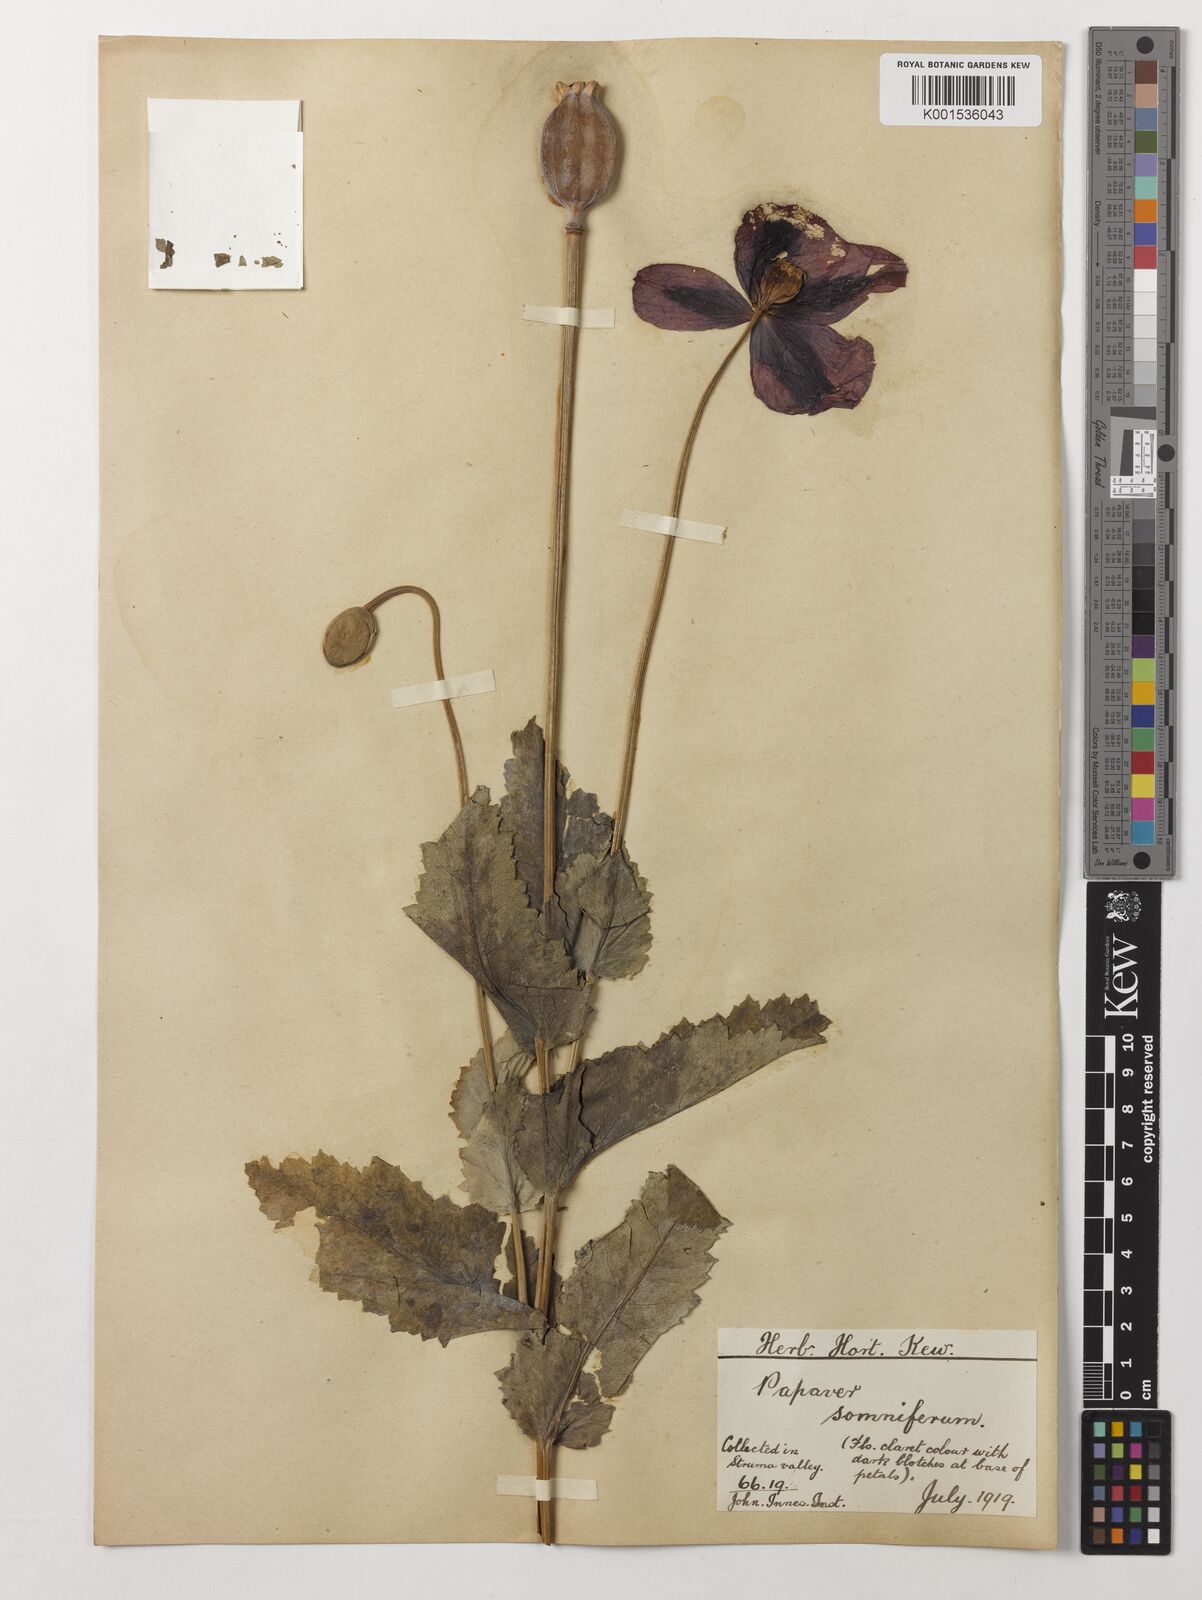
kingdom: Plantae
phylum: Tracheophyta
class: Magnoliopsida
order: Ranunculales
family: Papaveraceae
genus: Papaver
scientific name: Papaver somniferum
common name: Opium poppy
